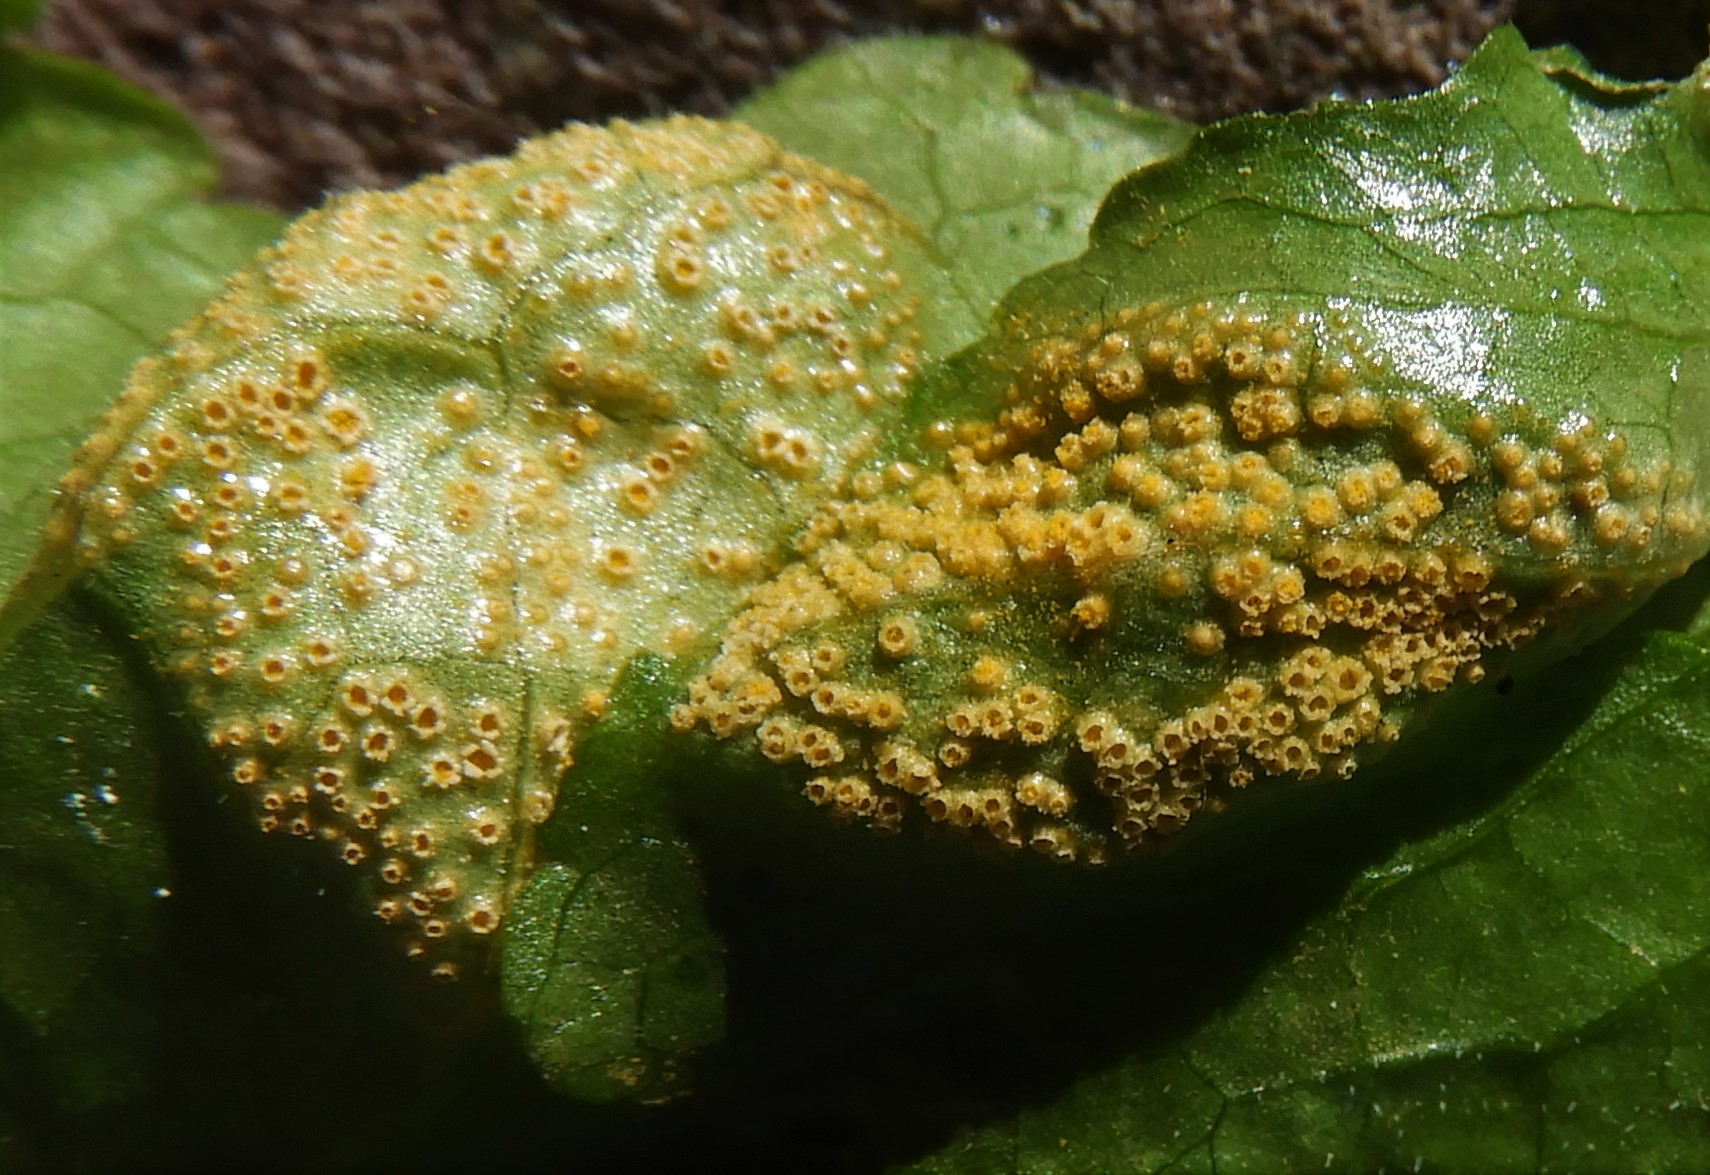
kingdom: Fungi
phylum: Basidiomycota
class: Pucciniomycetes
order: Pucciniales
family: Pucciniaceae
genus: Puccinia
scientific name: Puccinia violae
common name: viol-tvecellerust
